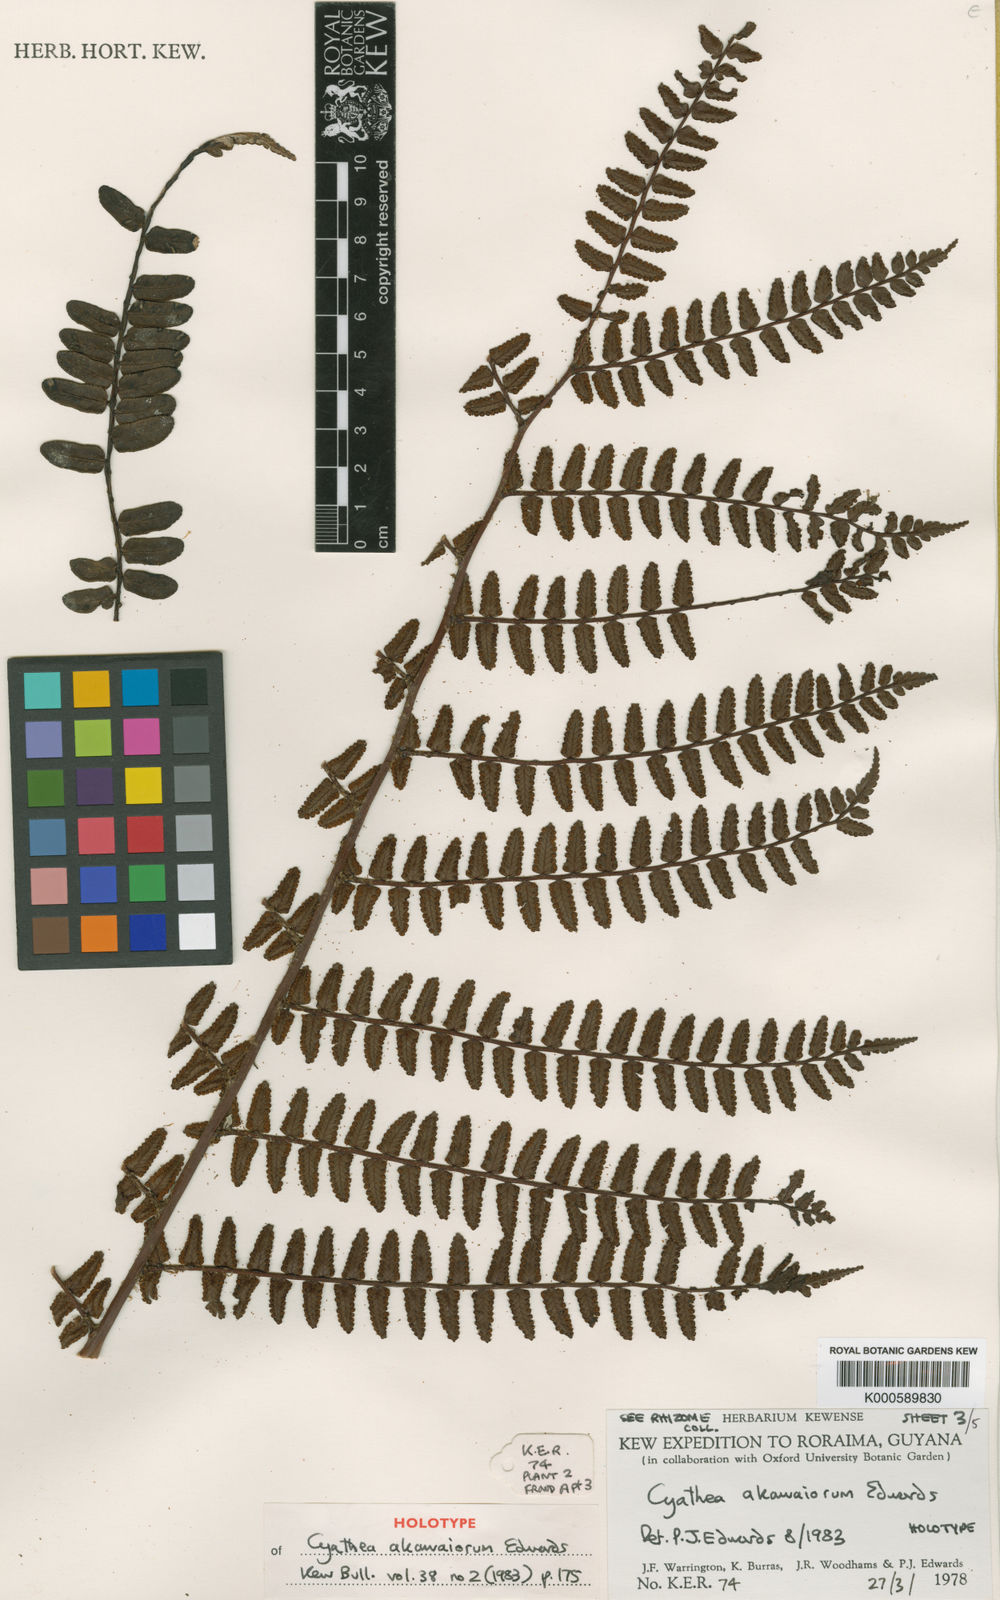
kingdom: Plantae
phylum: Tracheophyta
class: Polypodiopsida
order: Cyatheales
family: Cyatheaceae
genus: Cyathea
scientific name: Cyathea akawaiorum
